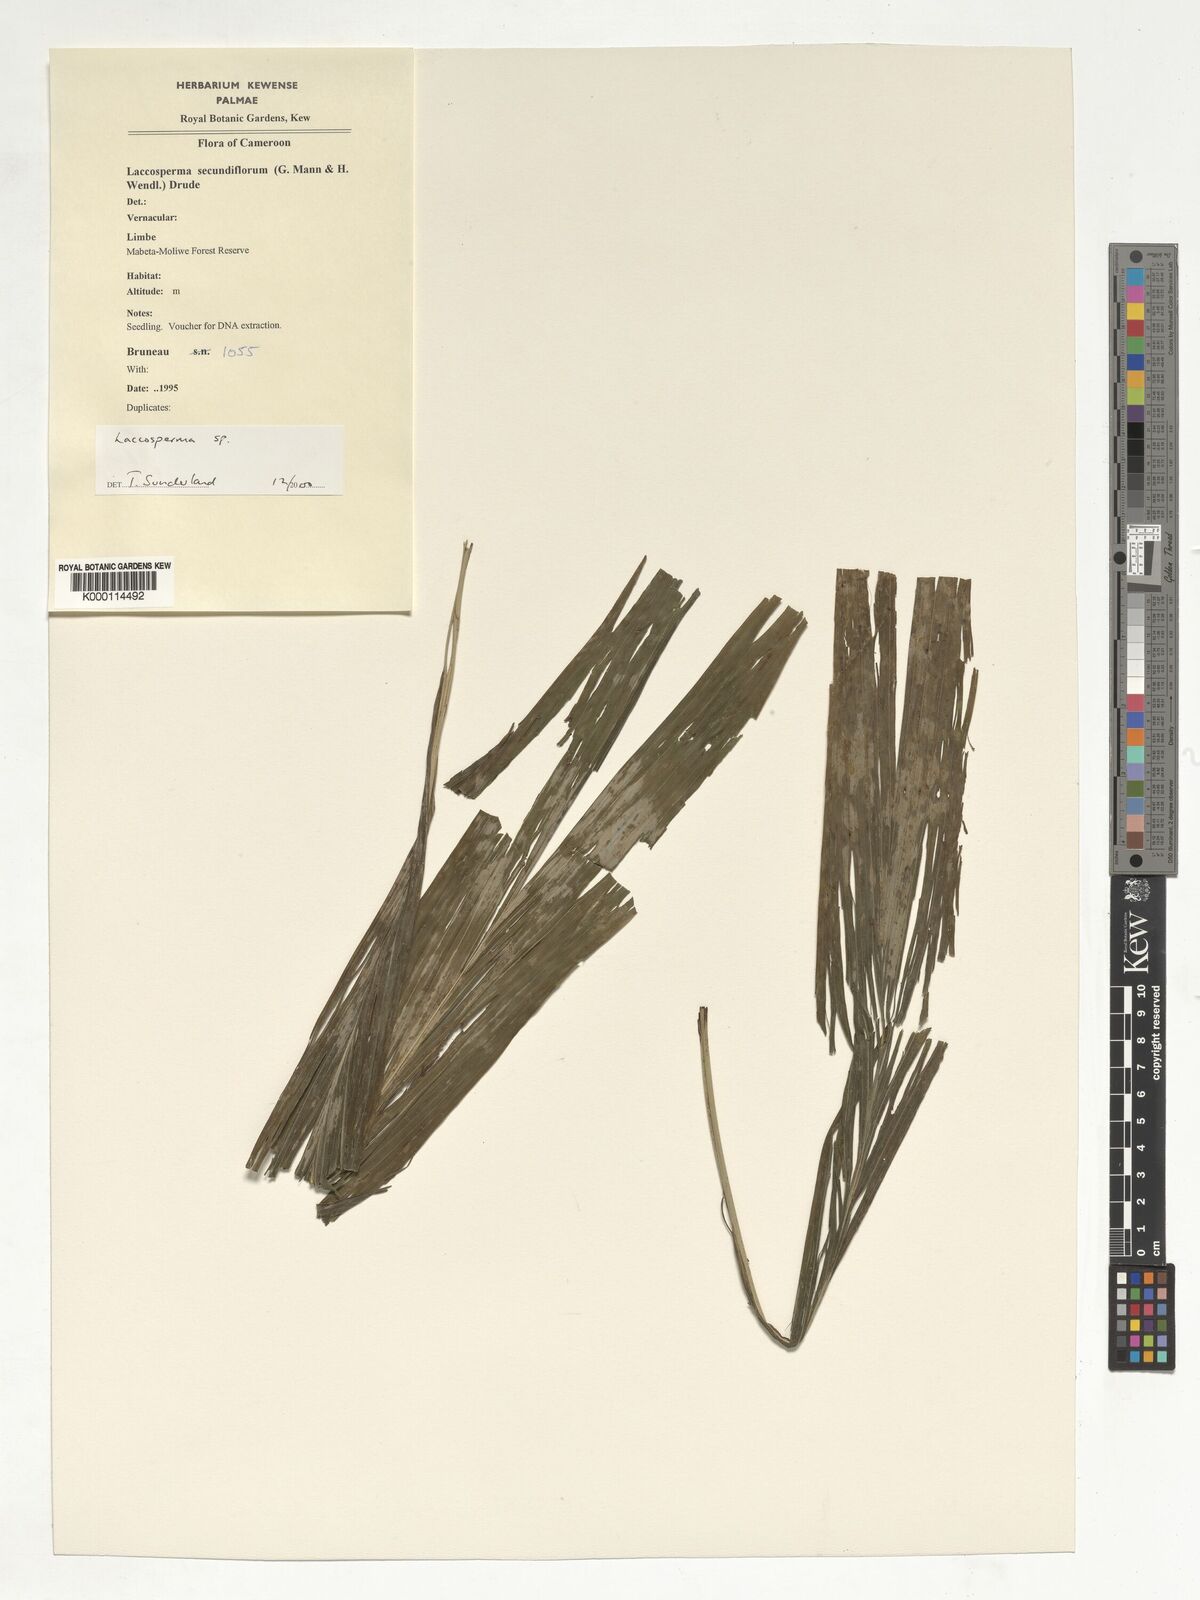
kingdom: Plantae
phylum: Tracheophyta
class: Liliopsida
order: Arecales
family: Arecaceae
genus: Laccosperma
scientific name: Laccosperma secundiflorum
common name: Rattan
